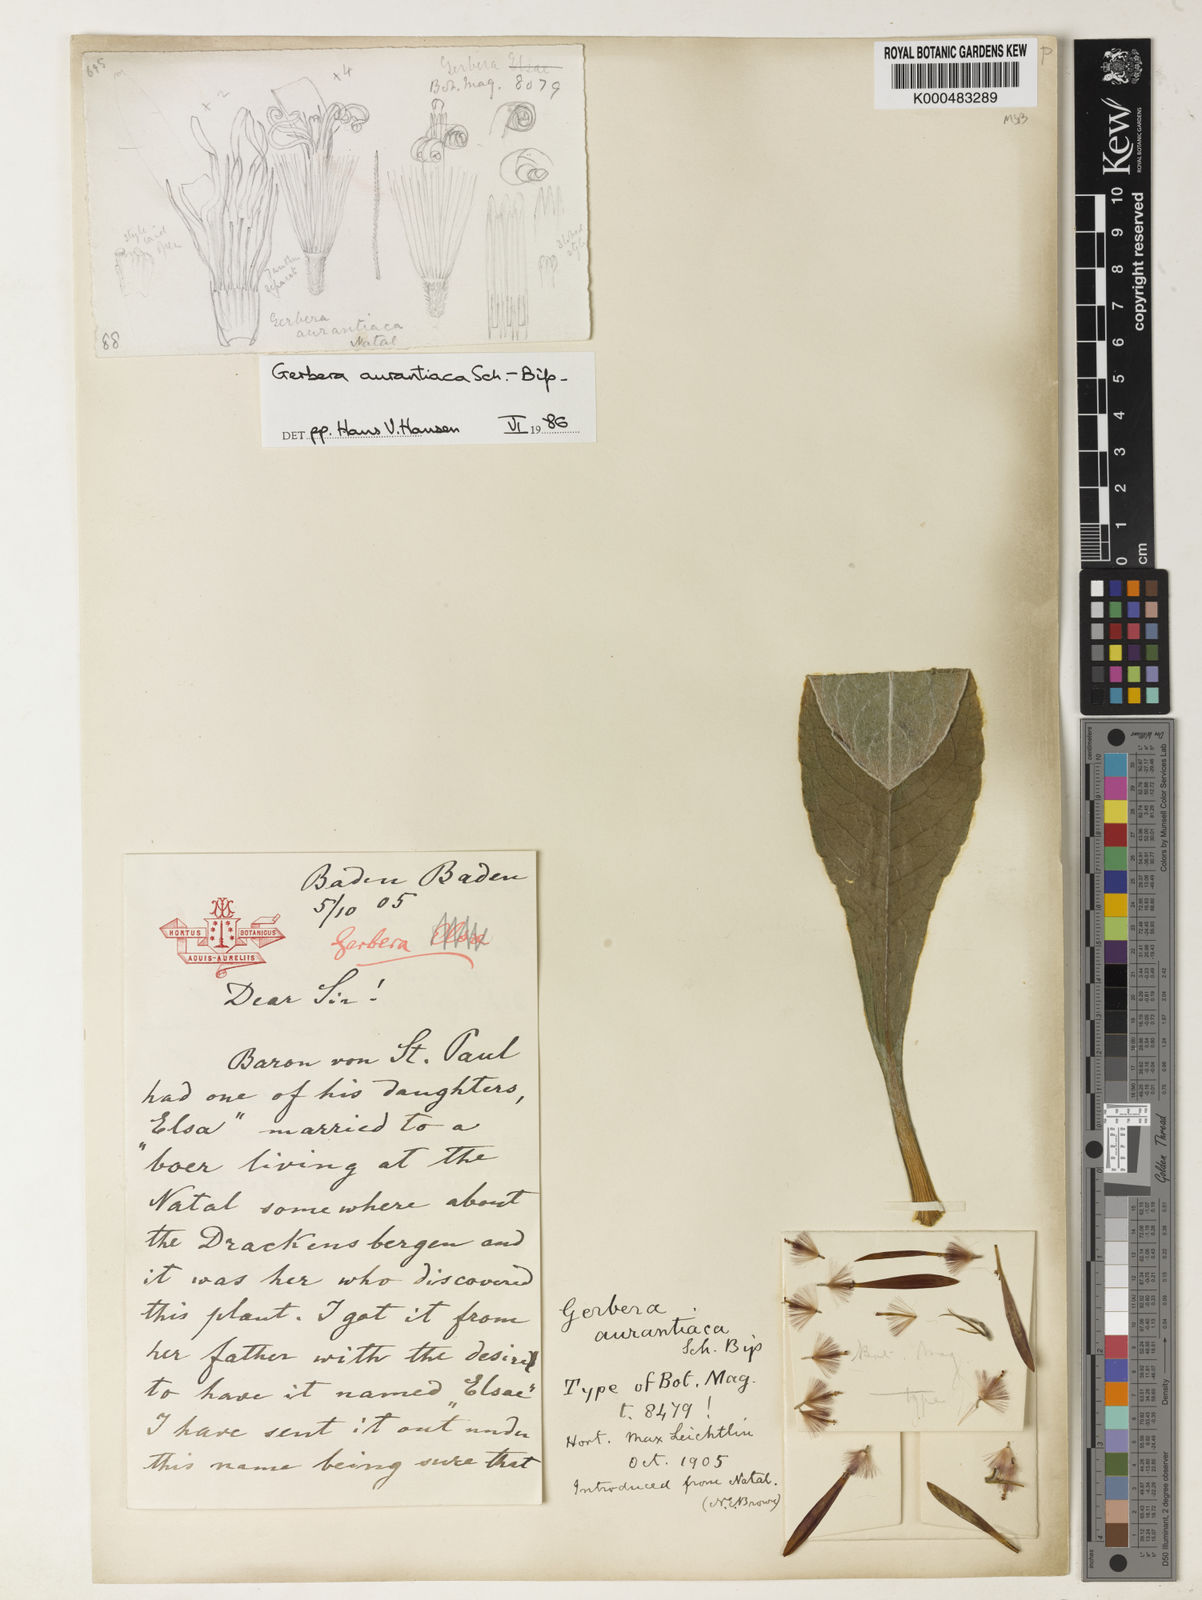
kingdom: Plantae
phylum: Tracheophyta
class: Magnoliopsida
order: Asterales
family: Asteraceae
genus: Gerbera
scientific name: Gerbera aurantiaca
